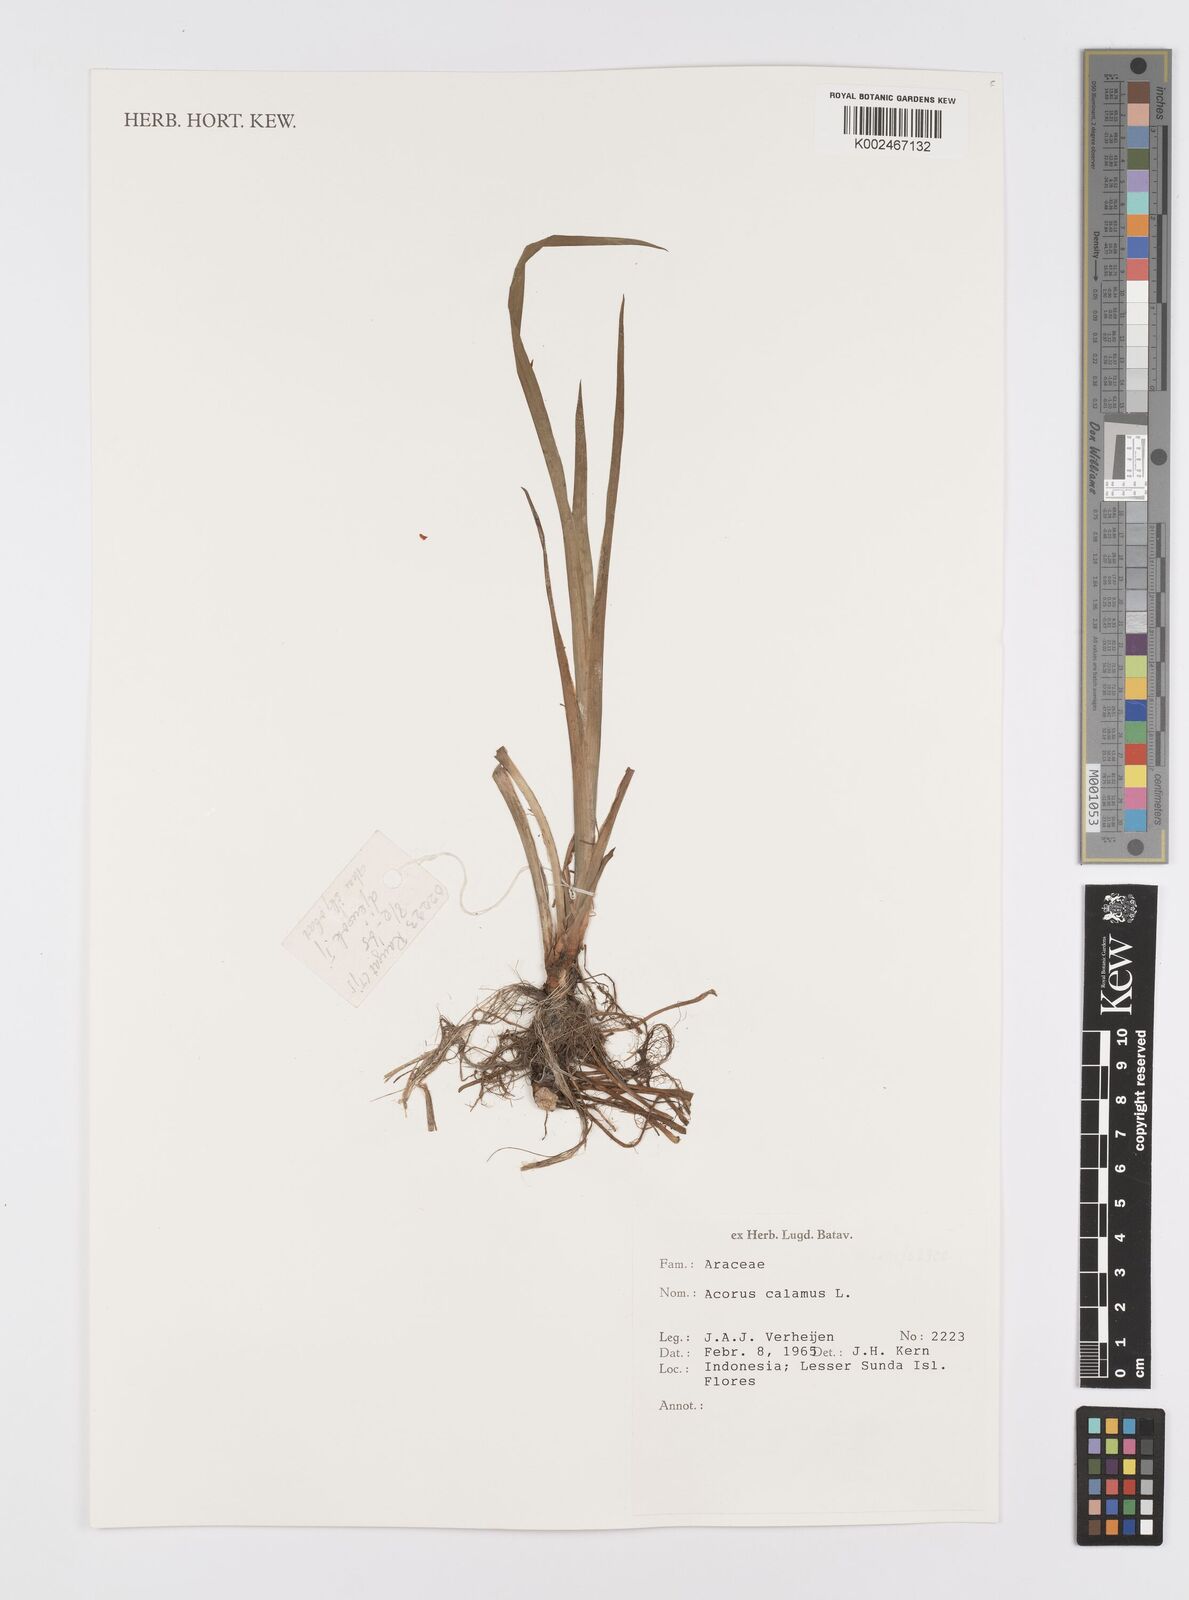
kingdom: Plantae
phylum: Tracheophyta
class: Liliopsida
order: Acorales
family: Acoraceae
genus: Acorus
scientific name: Acorus calamus
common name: Sweet-flag
